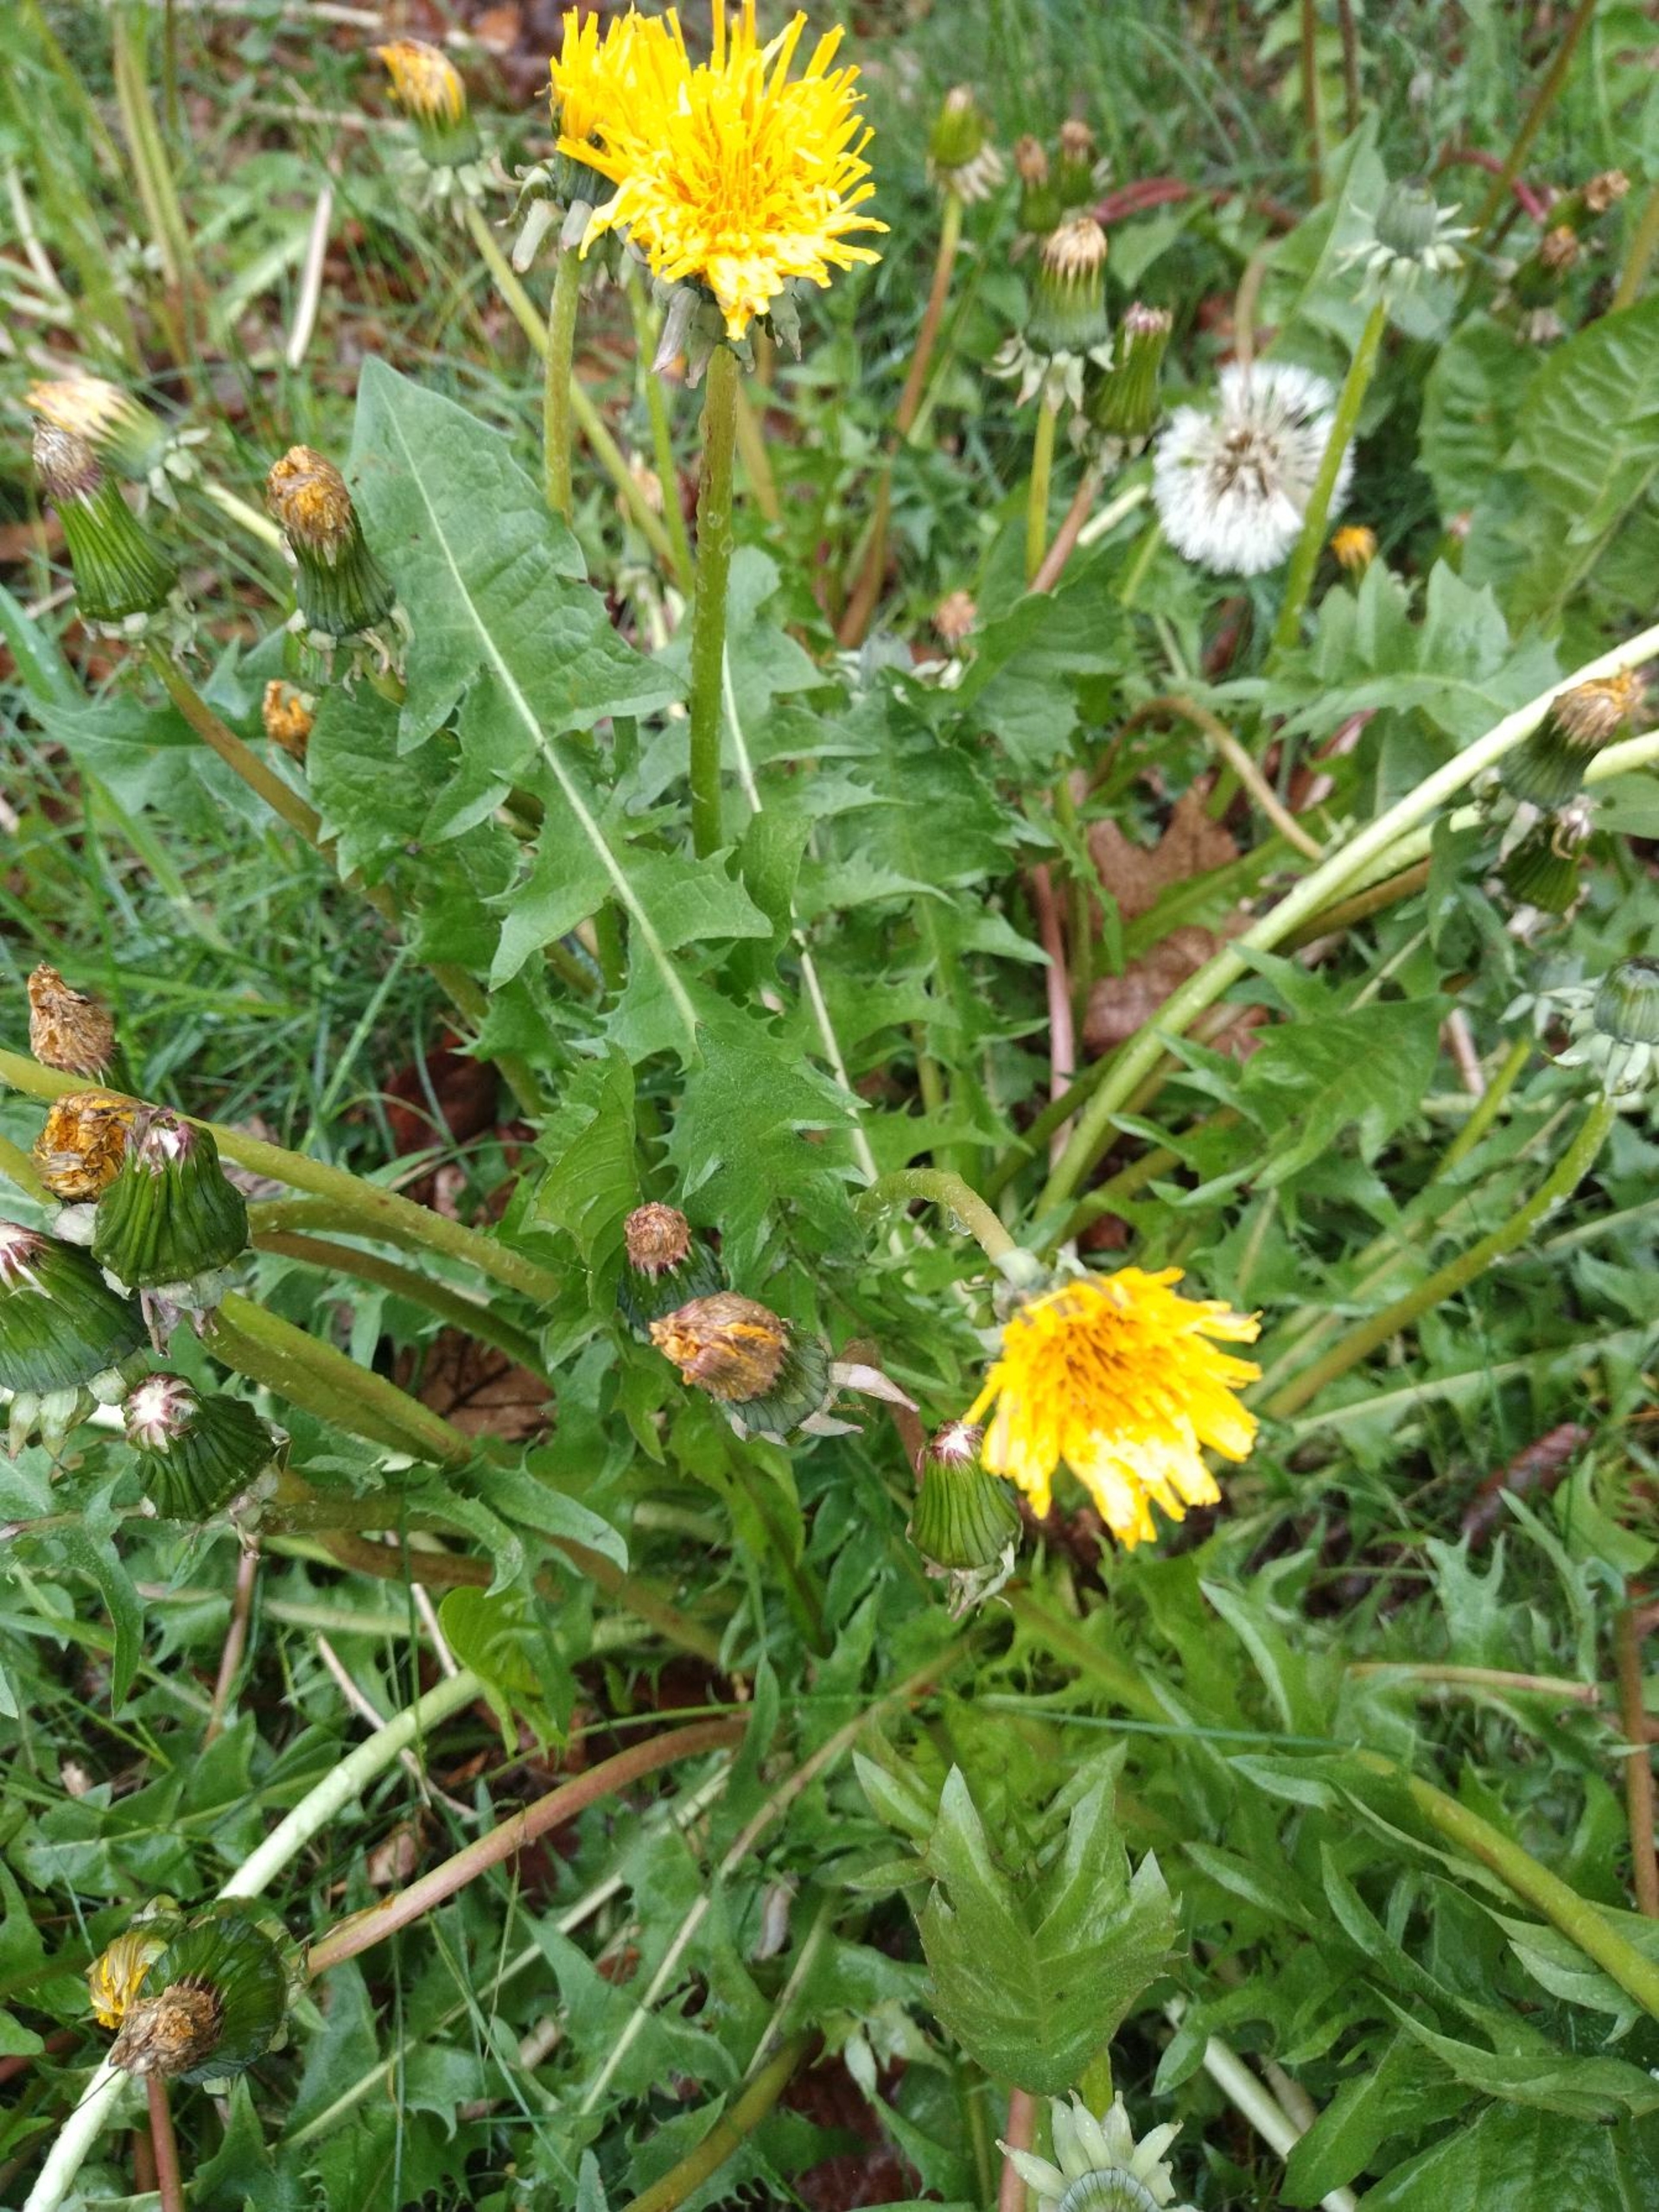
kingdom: Plantae
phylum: Tracheophyta
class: Magnoliopsida
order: Asterales
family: Asteraceae
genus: Taraxacum
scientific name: Taraxacum
